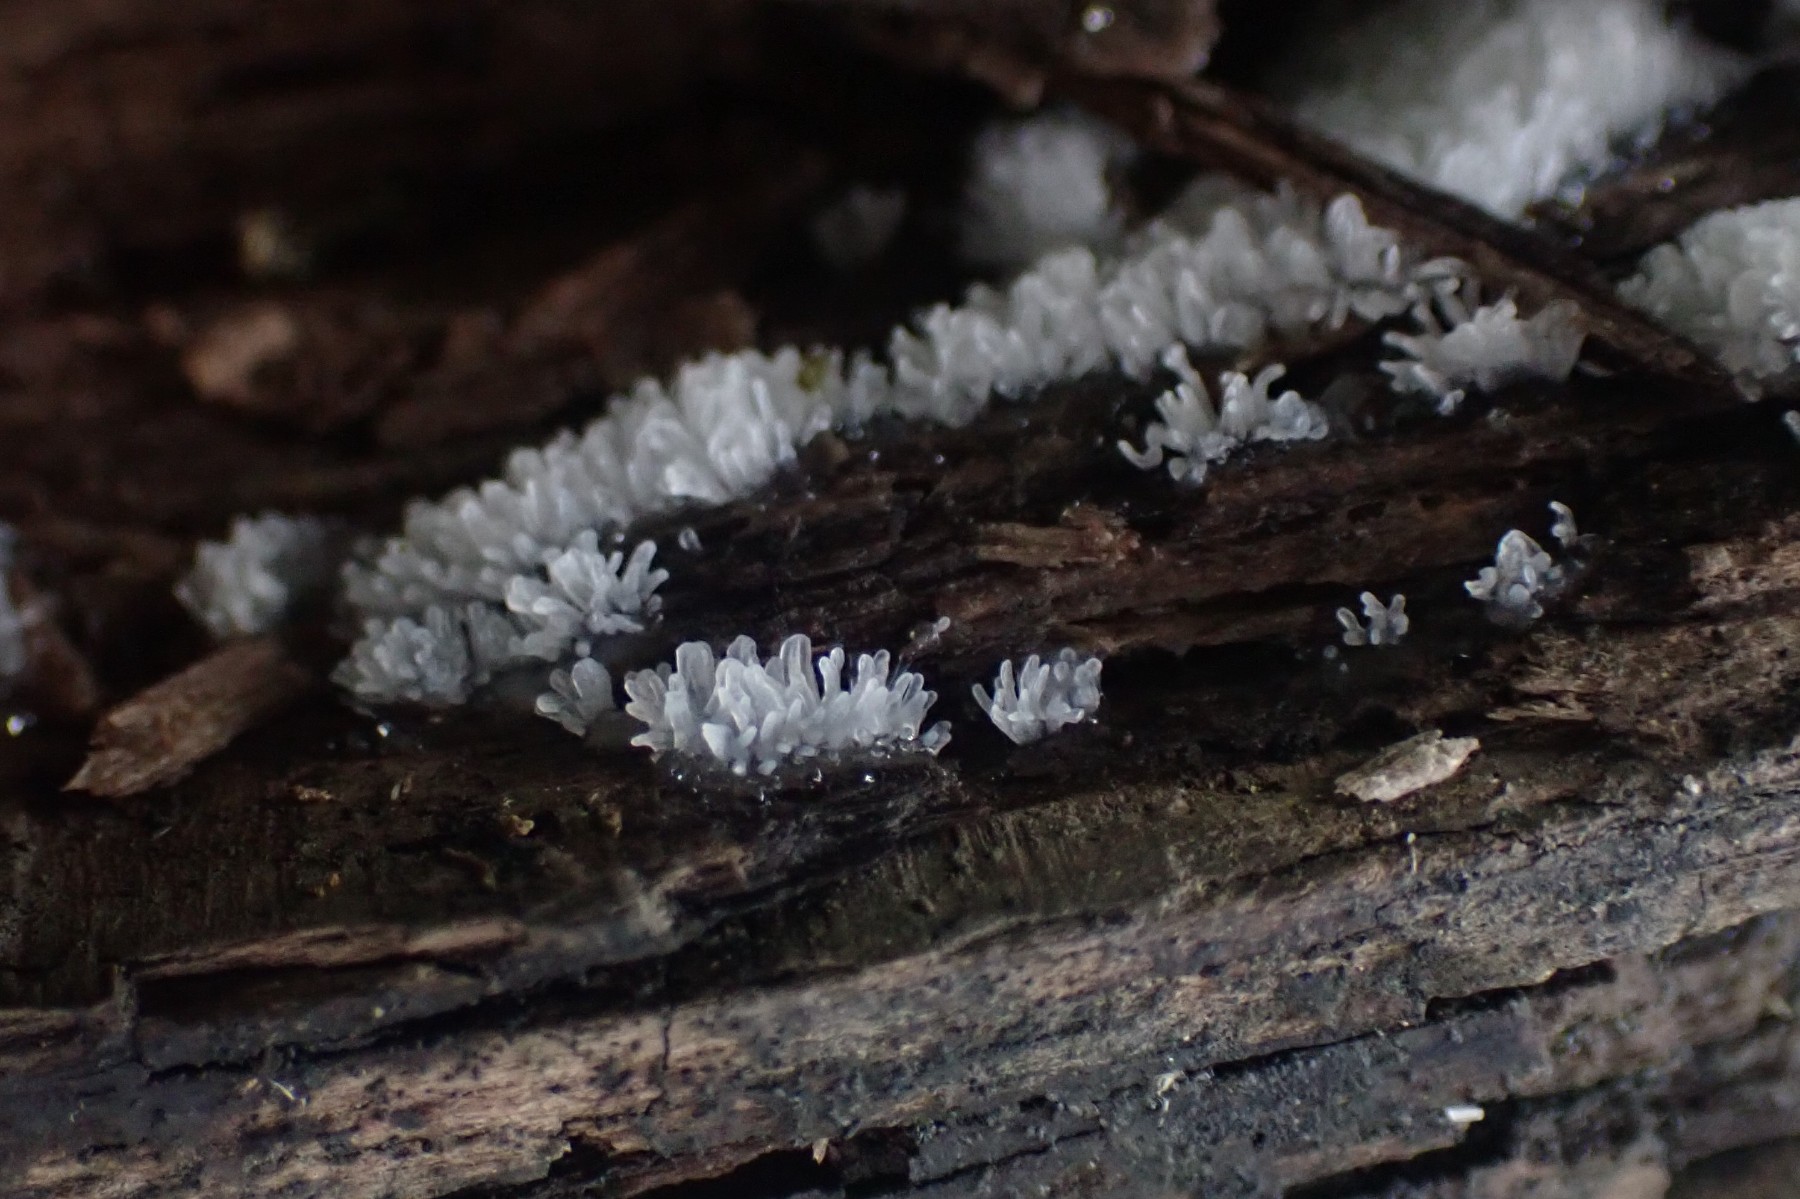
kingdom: Protozoa
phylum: Mycetozoa
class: Protosteliomycetes
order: Ceratiomyxales
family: Ceratiomyxaceae
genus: Ceratiomyxa
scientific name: Ceratiomyxa fruticulosa
